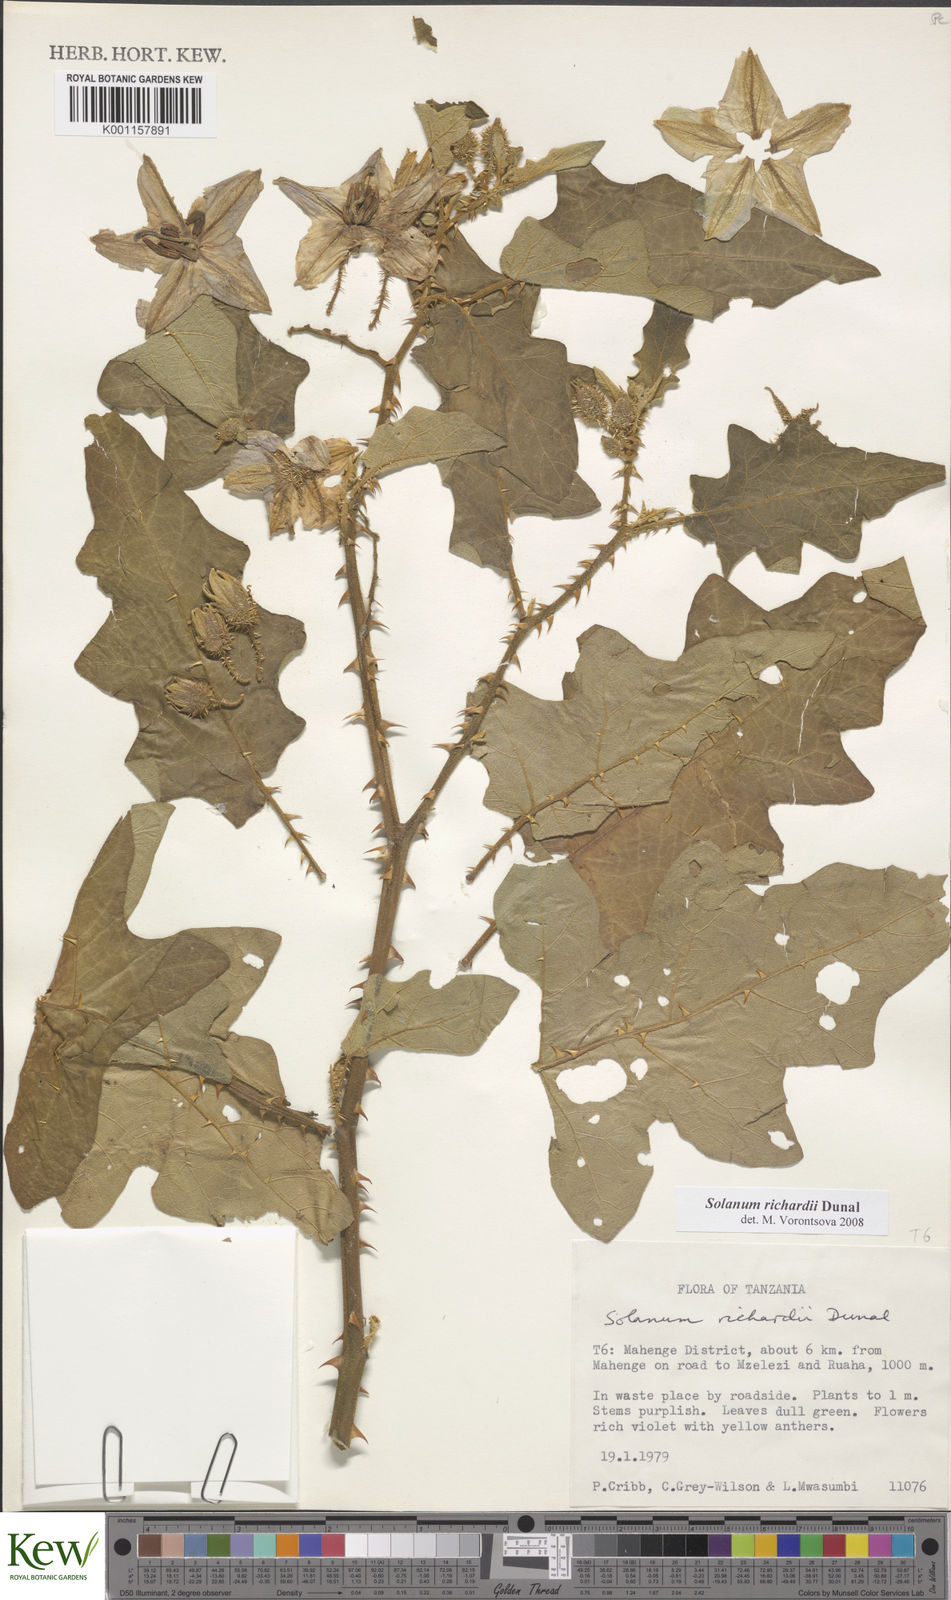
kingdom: Plantae
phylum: Tracheophyta
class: Magnoliopsida
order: Solanales
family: Solanaceae
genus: Solanum
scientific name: Solanum
